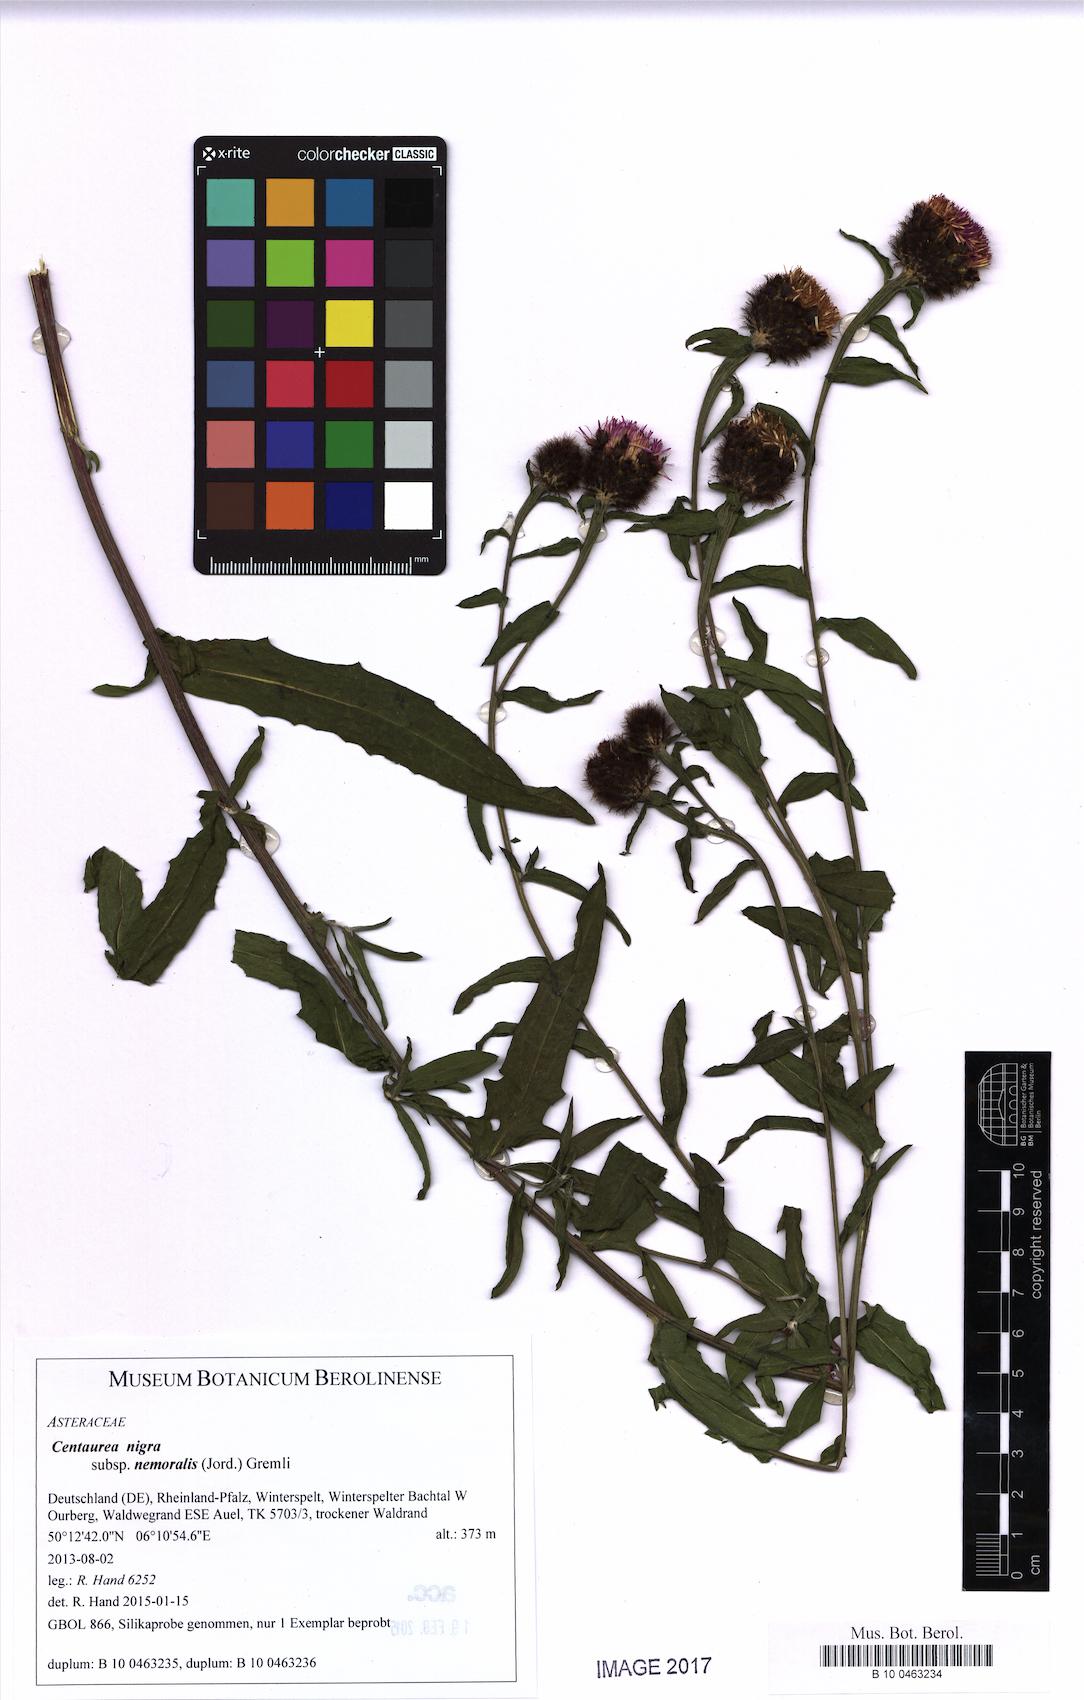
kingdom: Plantae
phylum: Tracheophyta
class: Magnoliopsida
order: Asterales
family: Asteraceae
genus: Centaurea
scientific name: Centaurea nigra
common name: Lesser knapweed
